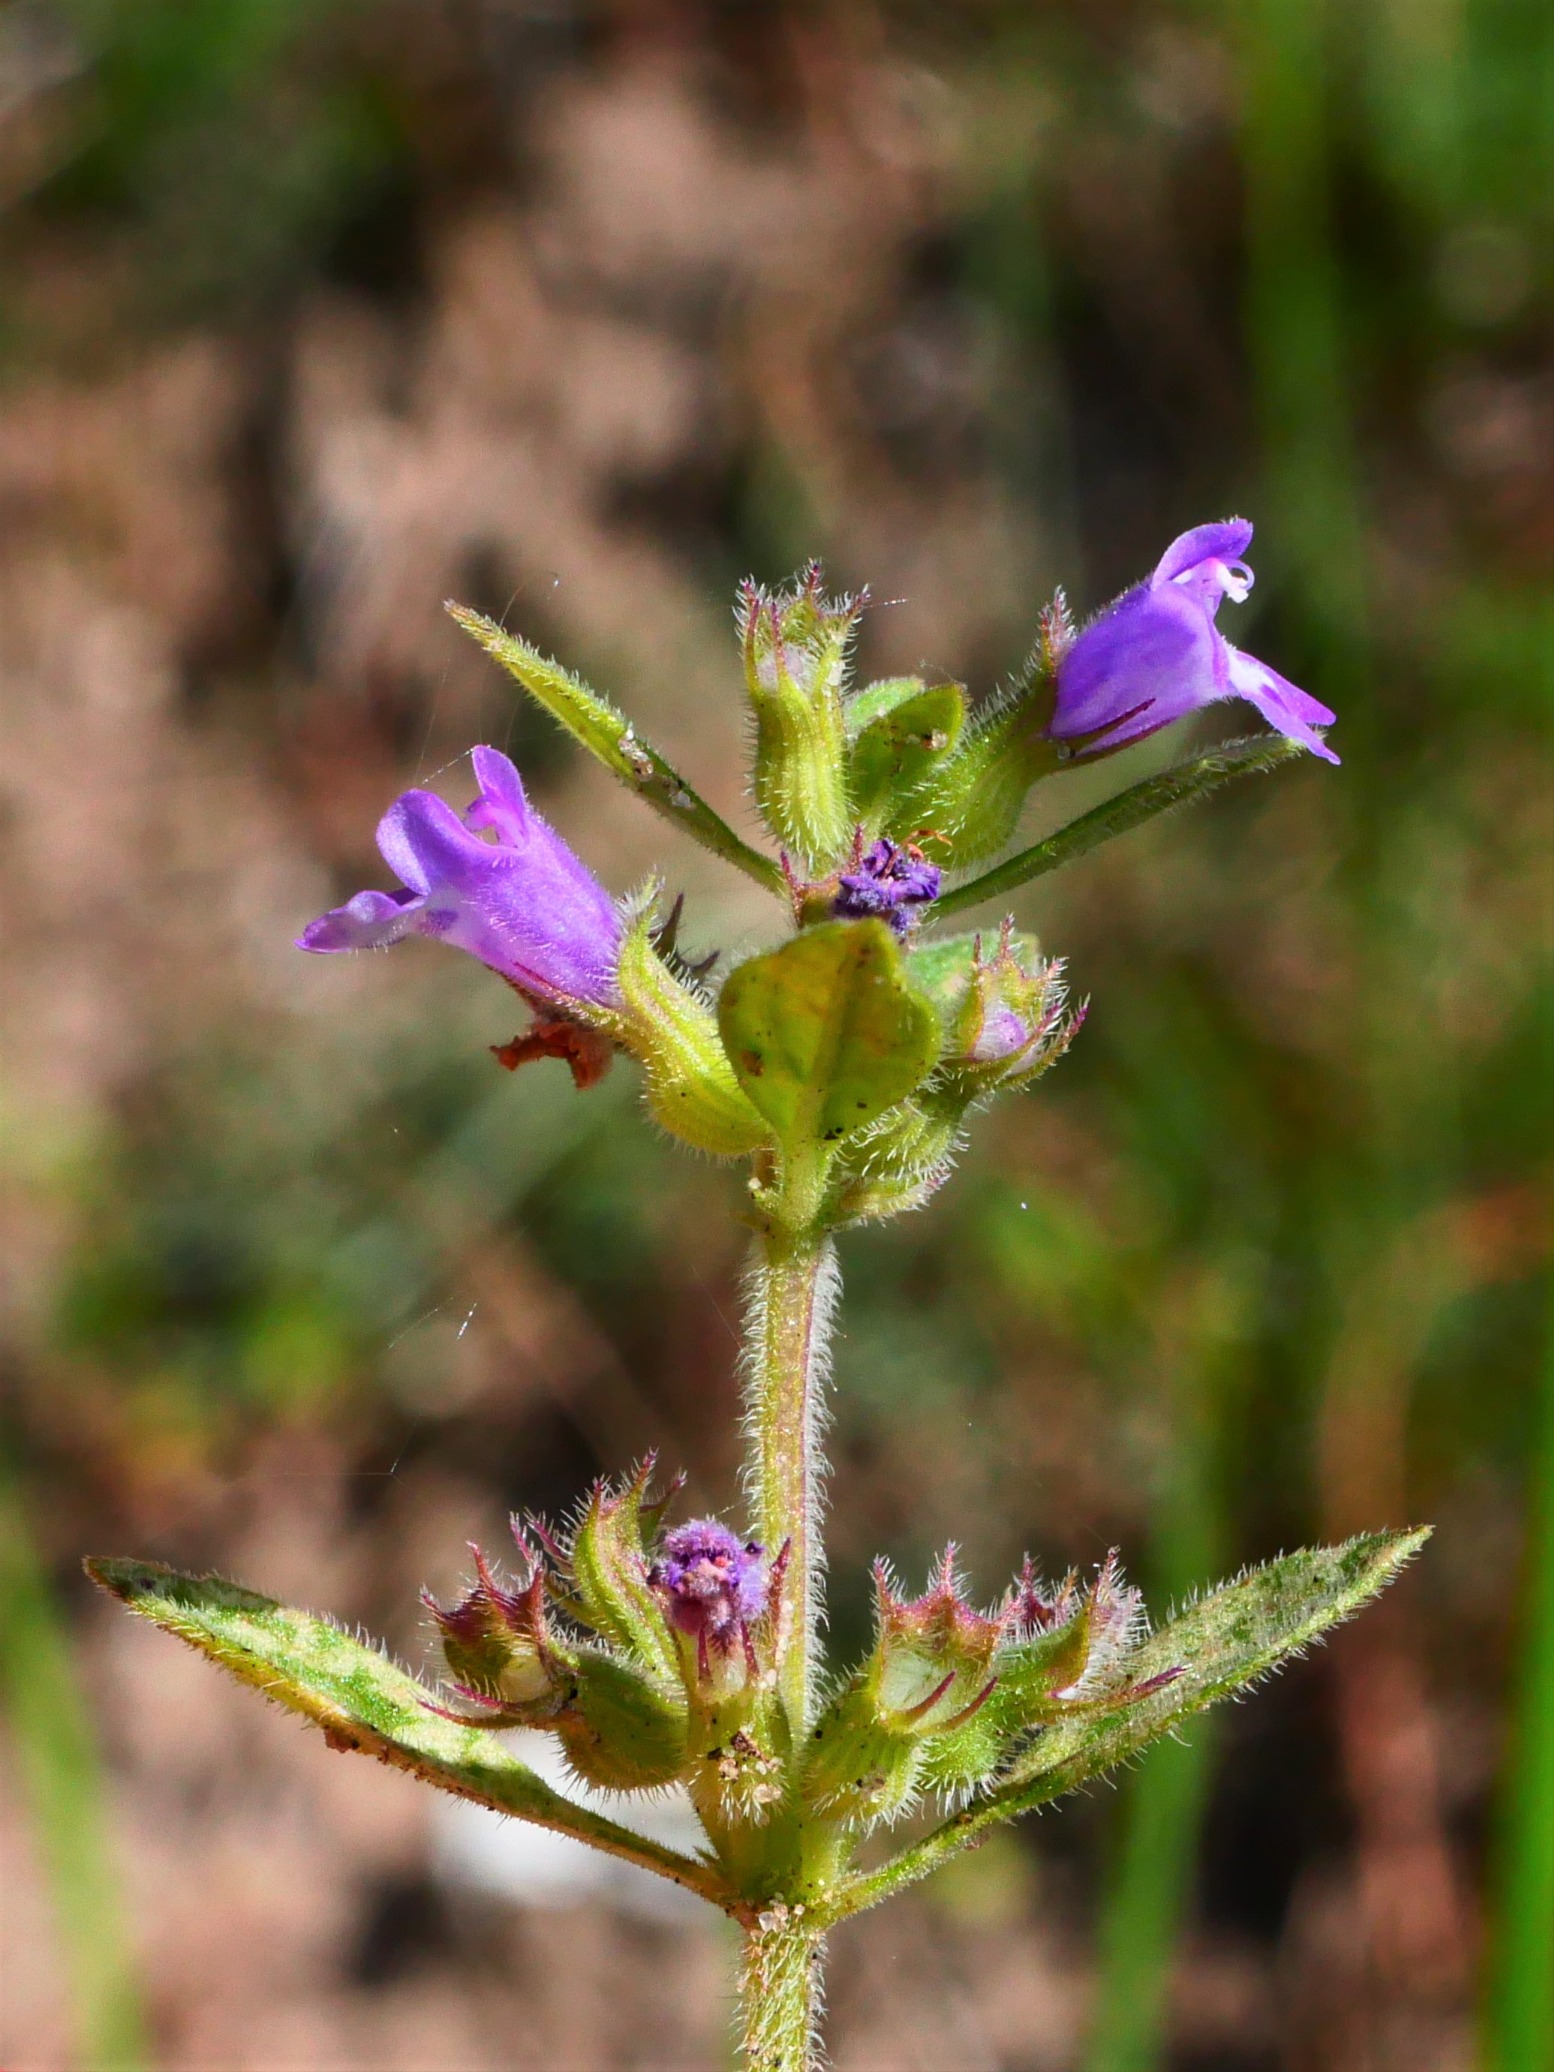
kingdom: Plantae
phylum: Tracheophyta
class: Magnoliopsida
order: Lamiales
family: Lamiaceae
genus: Clinopodium
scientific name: Clinopodium acinos
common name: Voldtimian
